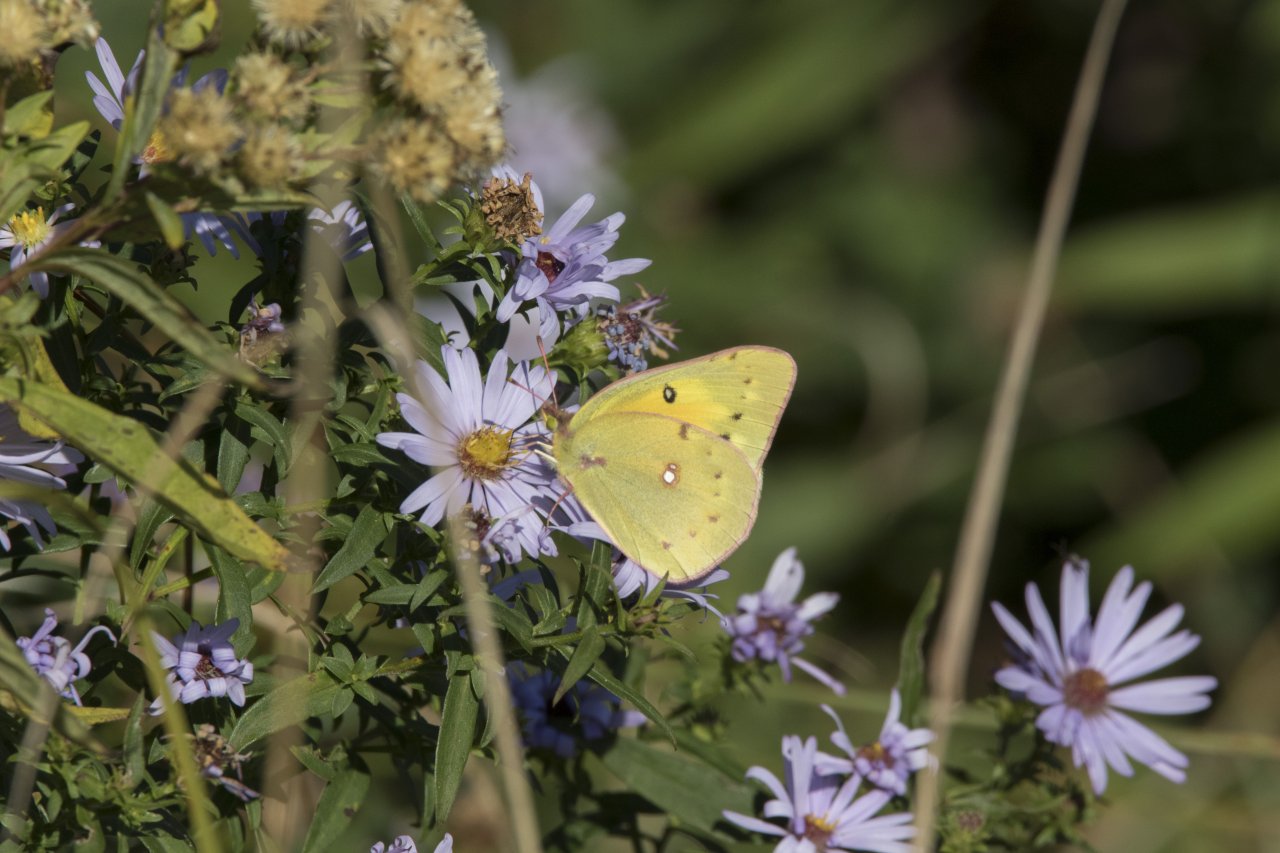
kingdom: Animalia
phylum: Arthropoda
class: Insecta
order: Lepidoptera
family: Pieridae
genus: Colias
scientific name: Colias eurytheme
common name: Orange Sulphur
